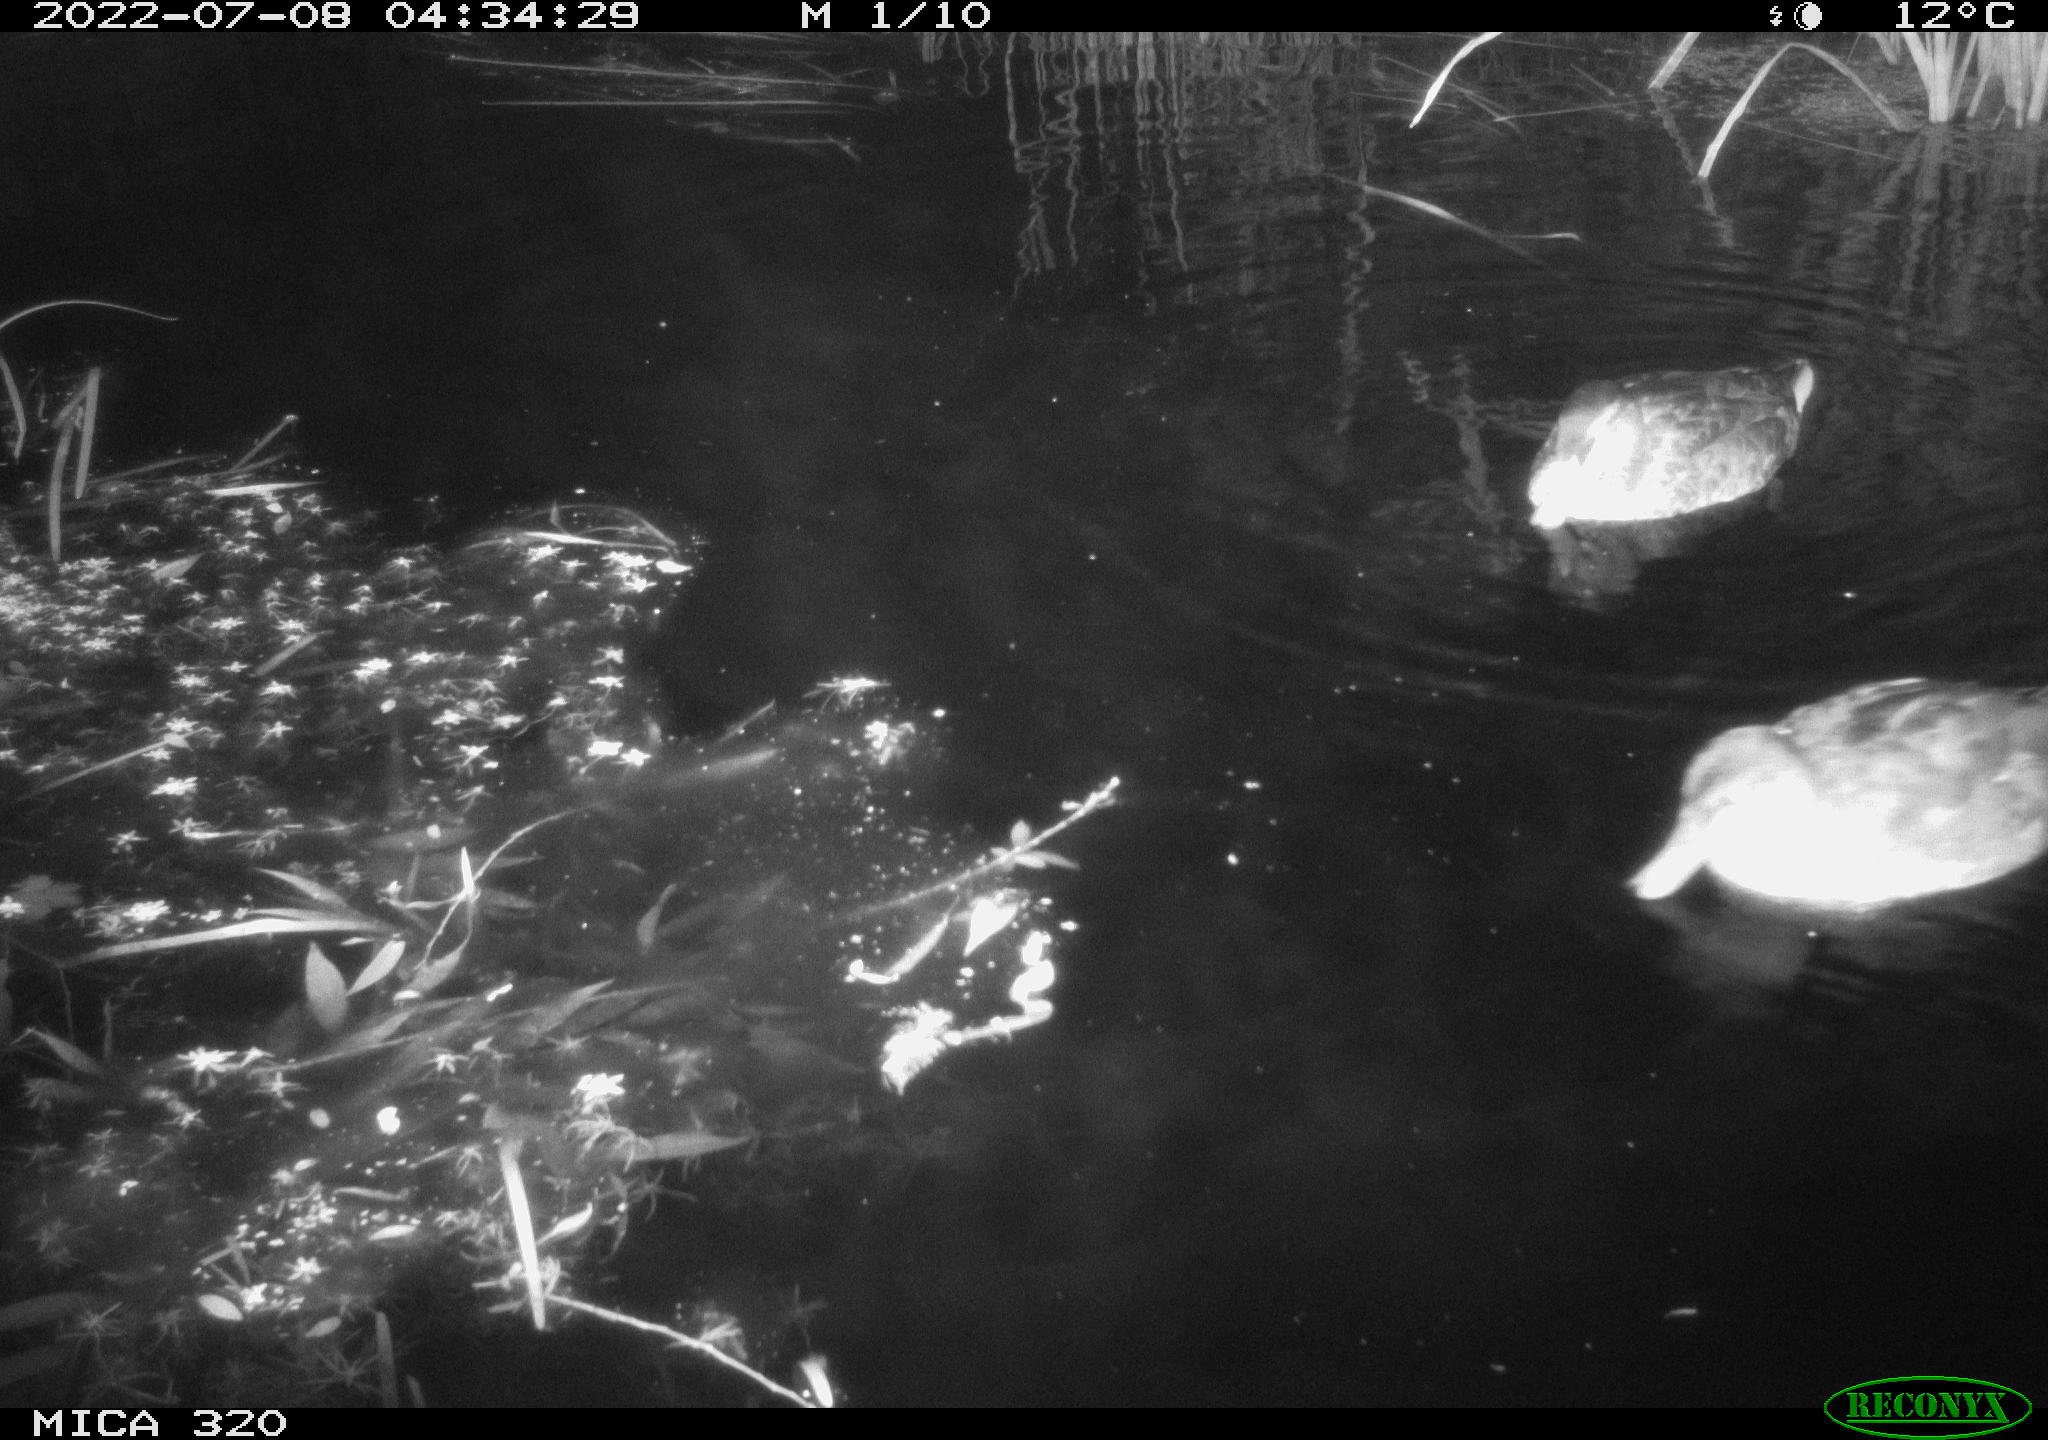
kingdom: Animalia
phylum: Chordata
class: Aves
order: Anseriformes
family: Anatidae
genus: Mareca
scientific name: Mareca strepera
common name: Gadwall
